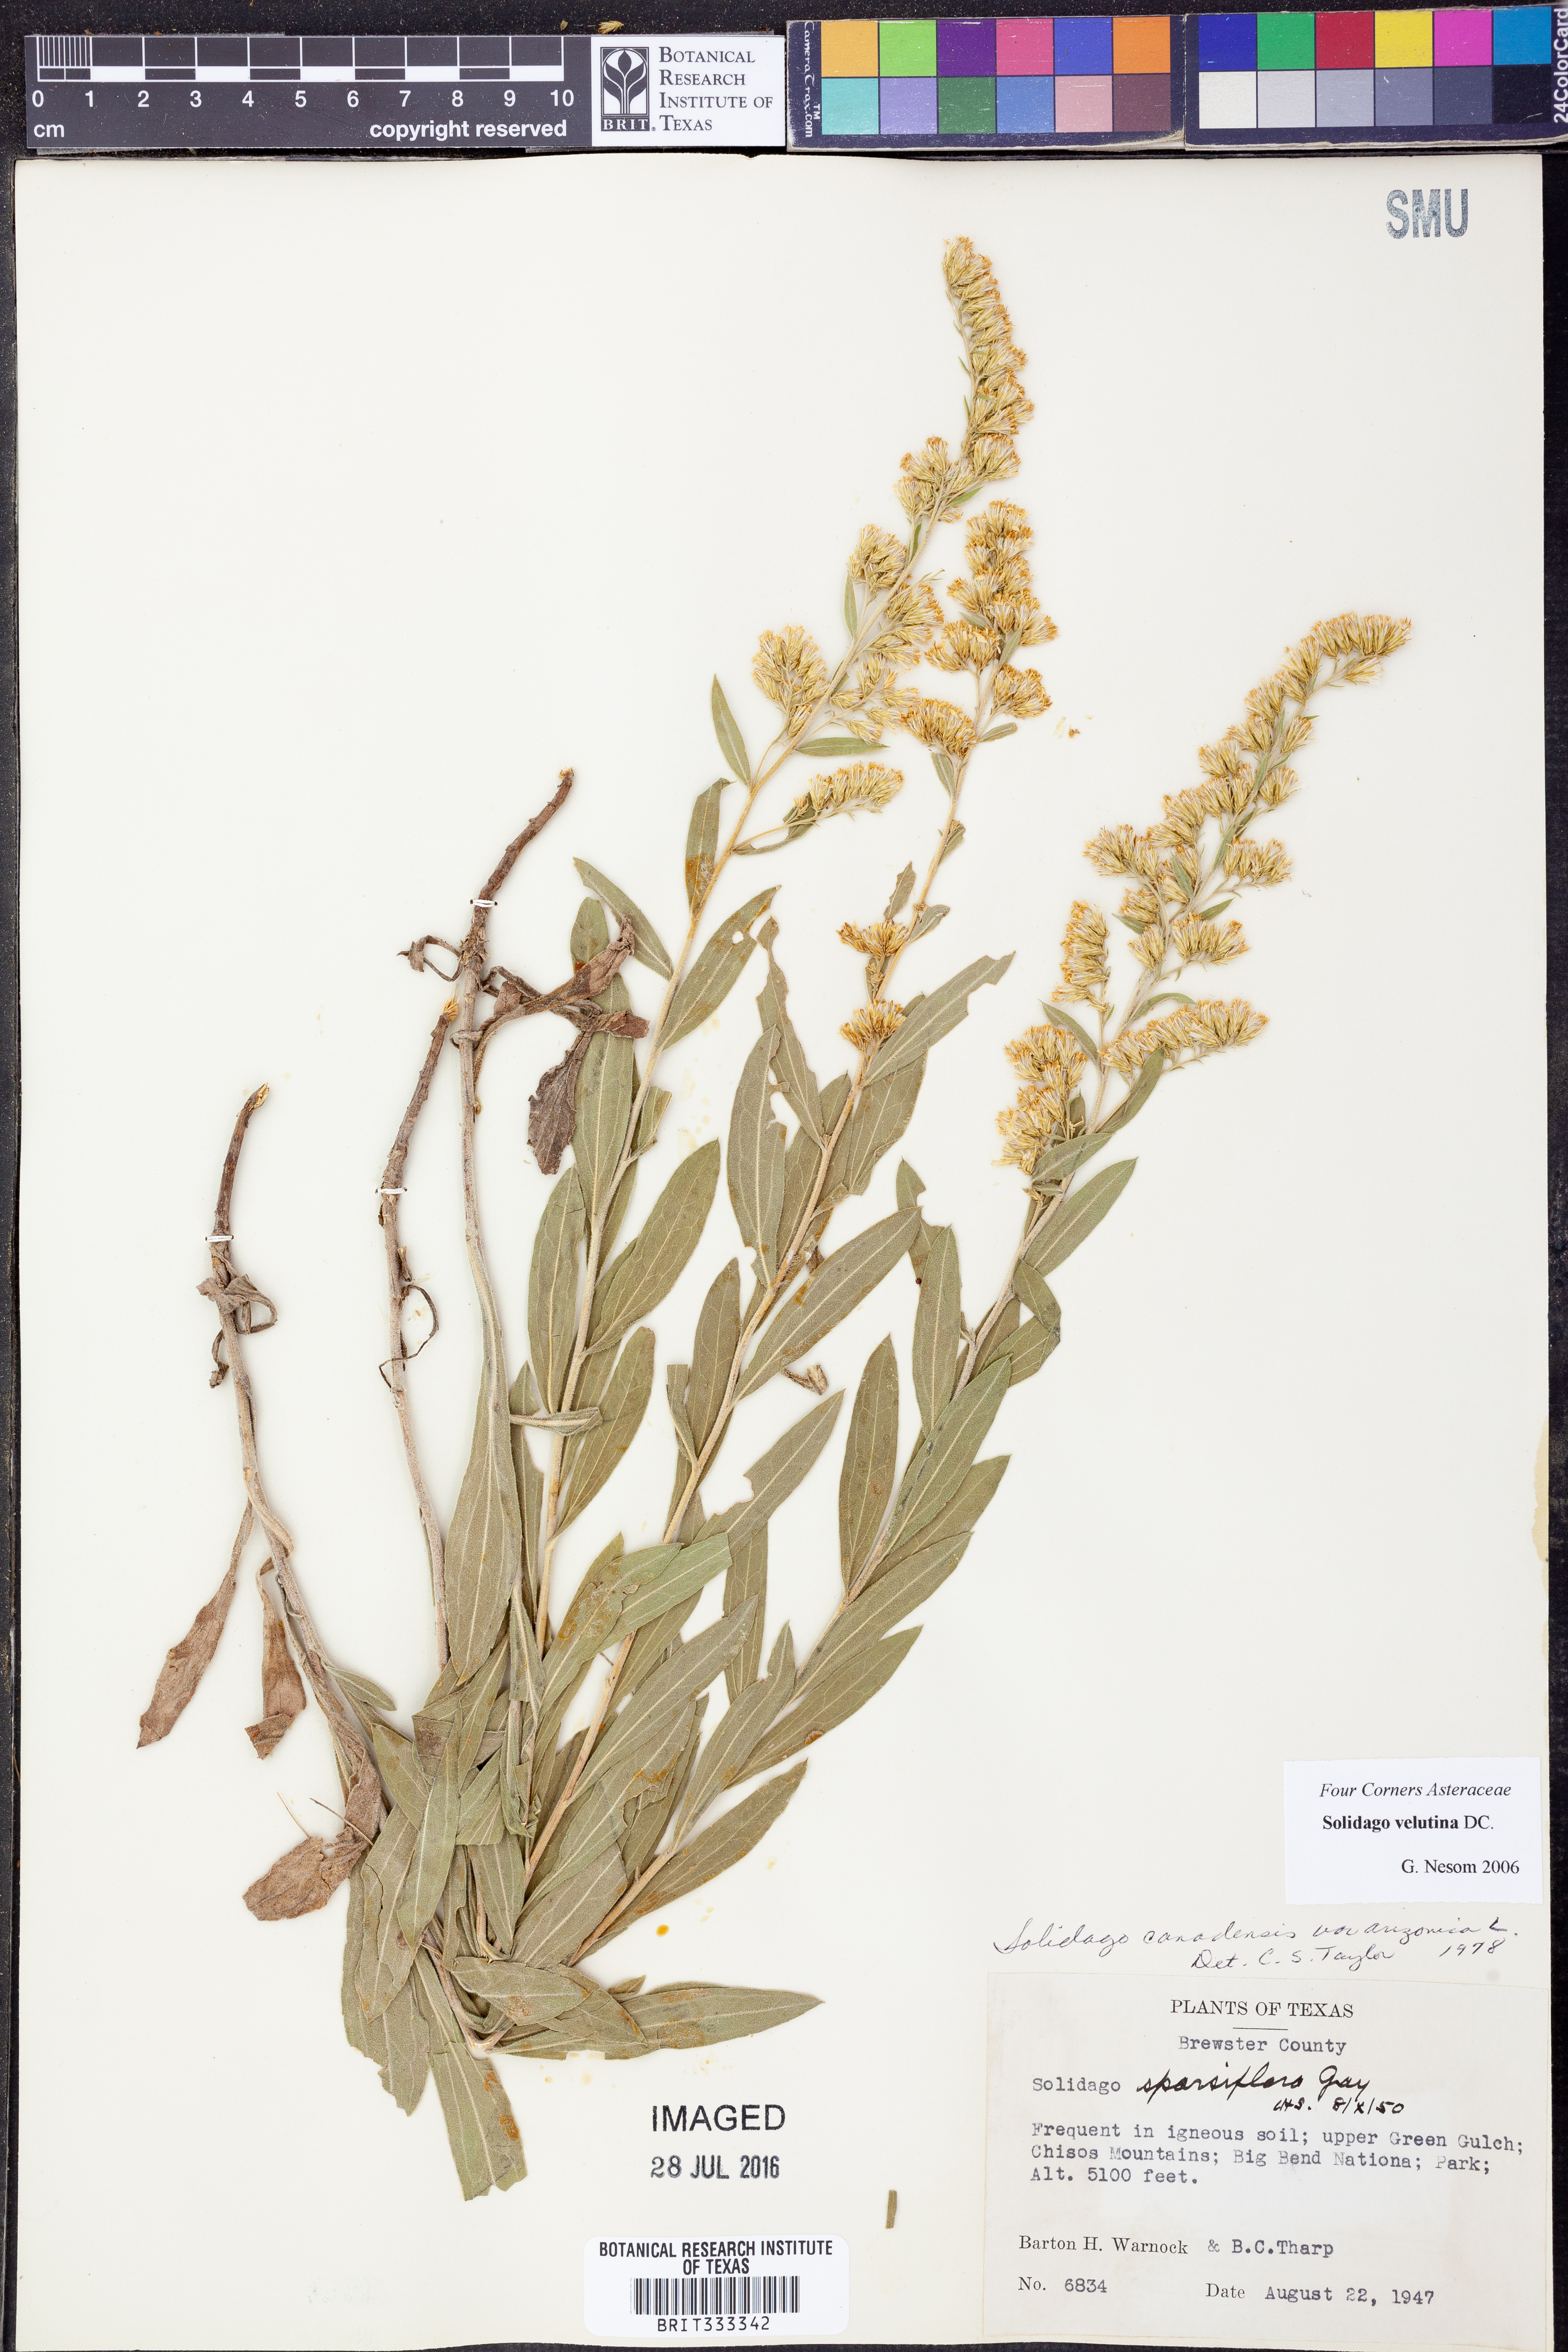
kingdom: Plantae
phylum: Tracheophyta
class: Magnoliopsida
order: Asterales
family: Asteraceae
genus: Solidago
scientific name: Solidago velutina
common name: Three-nerve goldenrod
